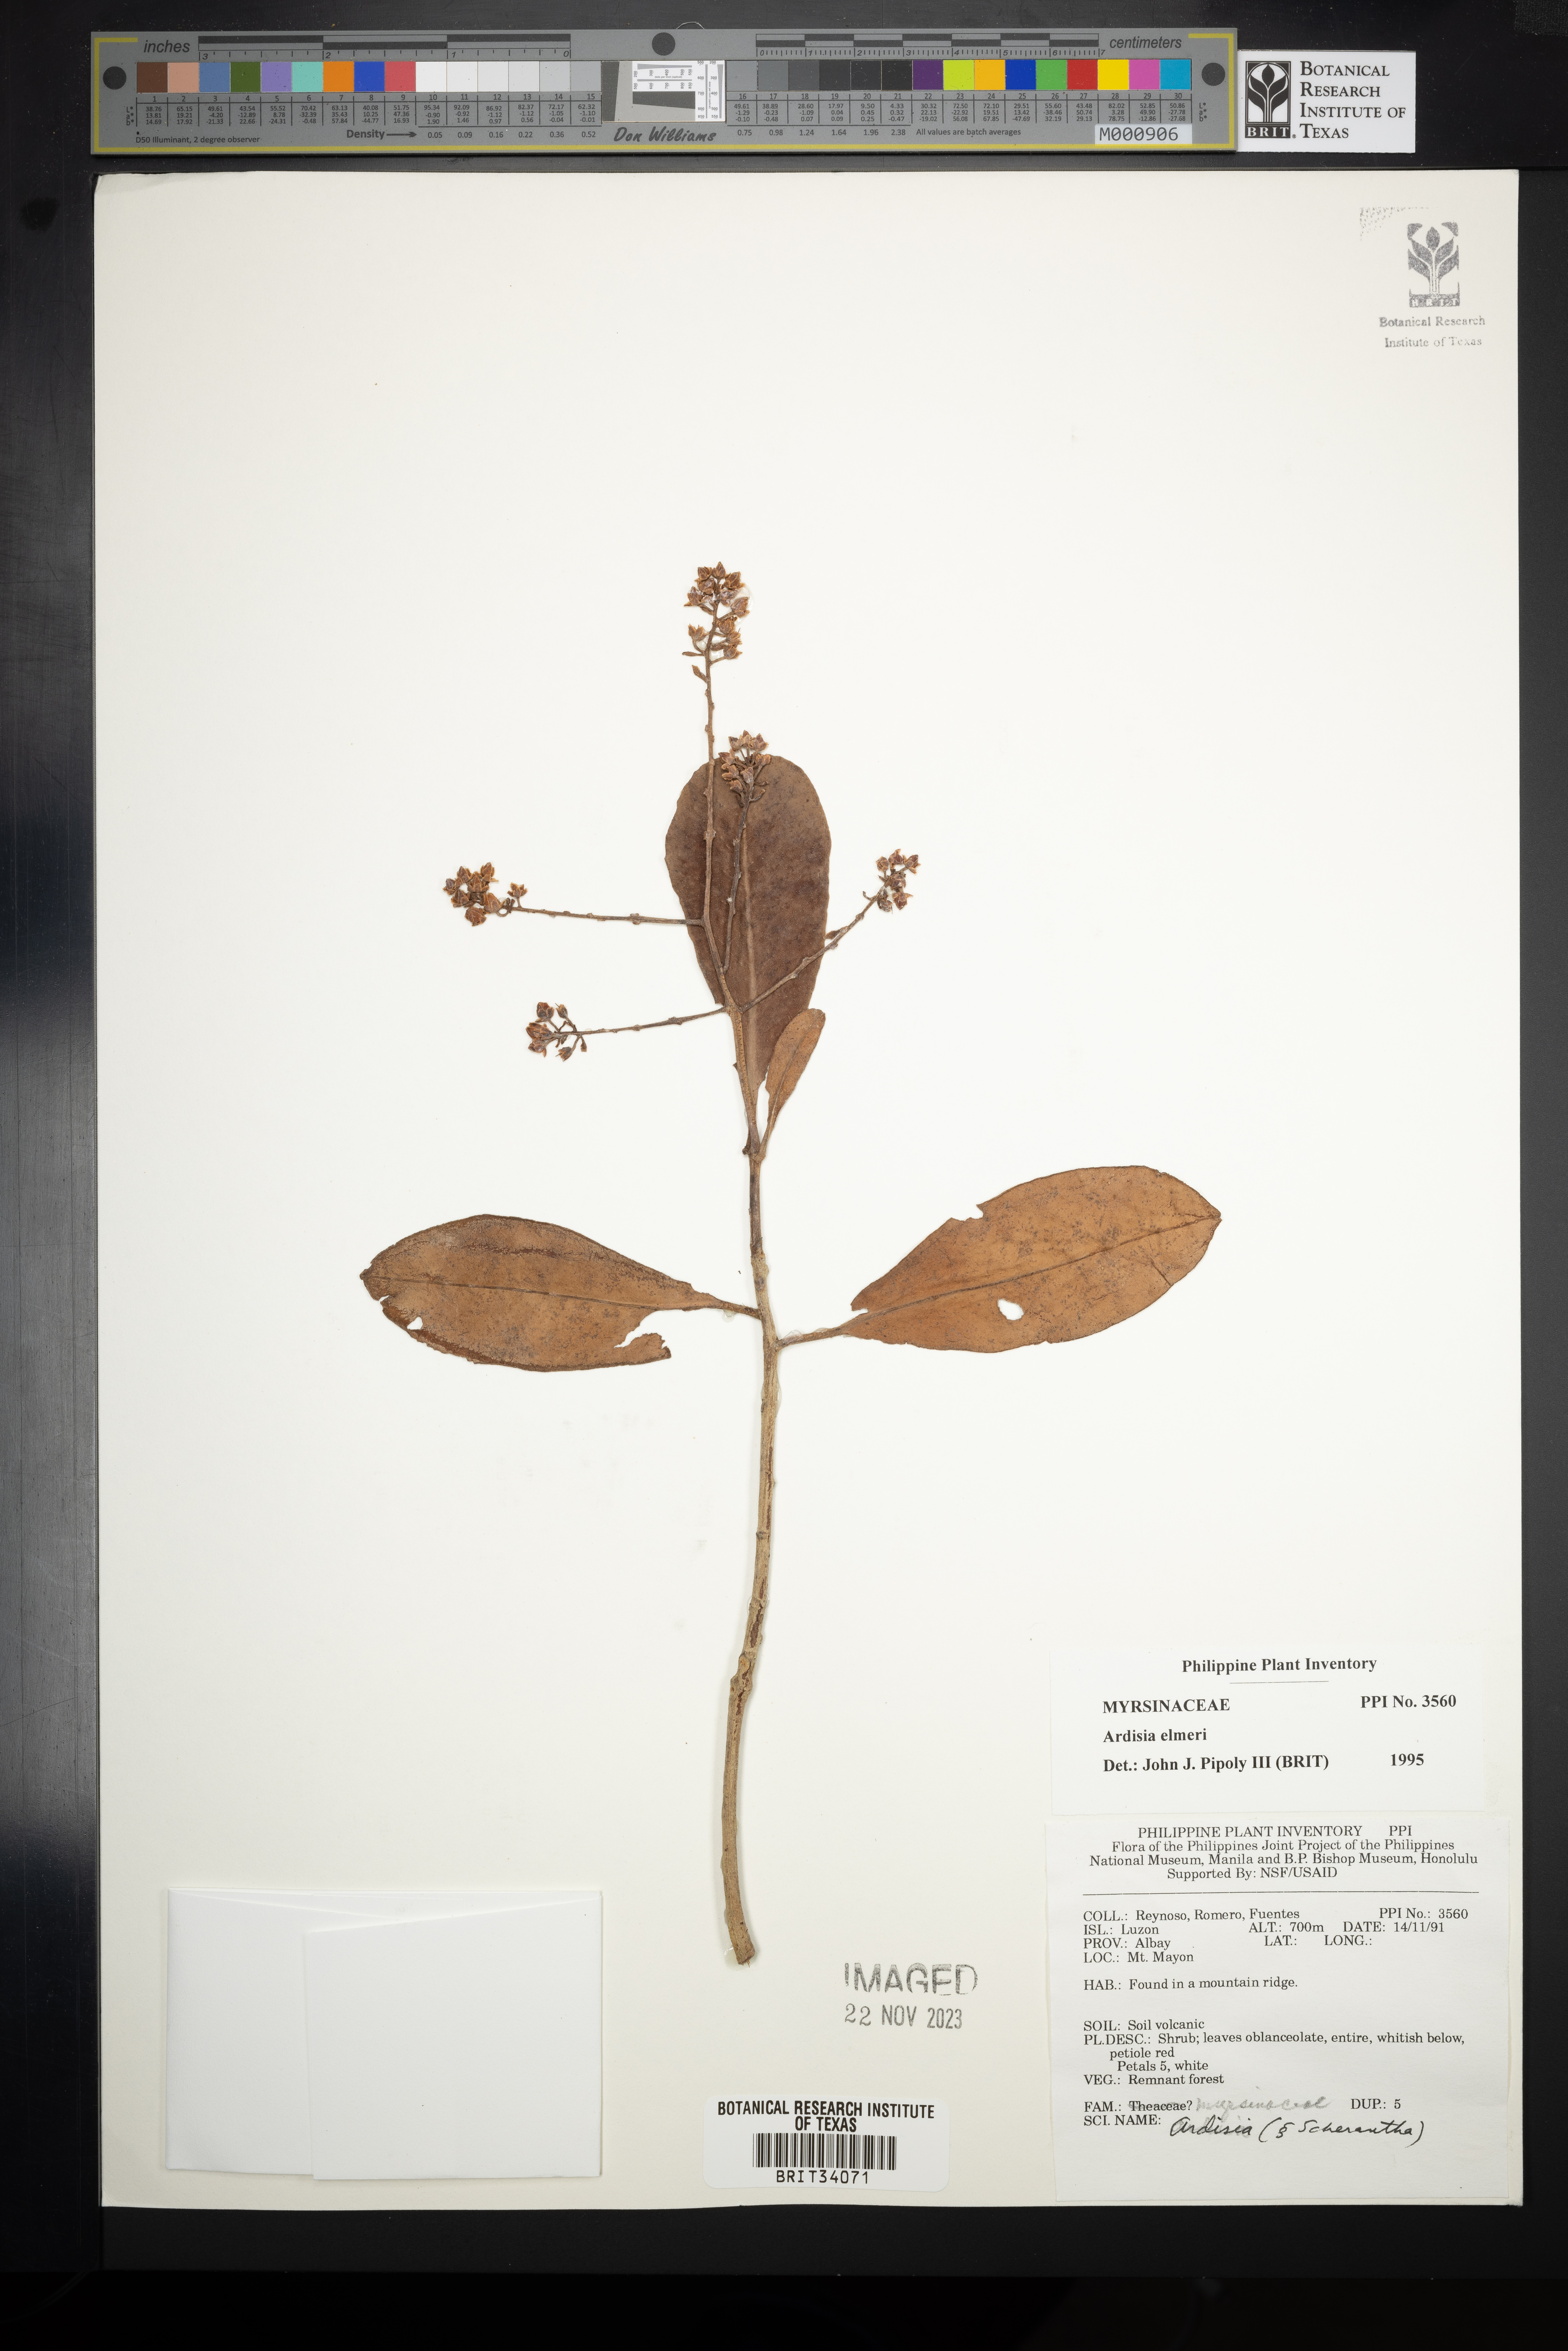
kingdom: Plantae
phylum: Tracheophyta
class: Magnoliopsida
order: Ericales
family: Primulaceae
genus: Ardisia
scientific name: Ardisia elmeri
